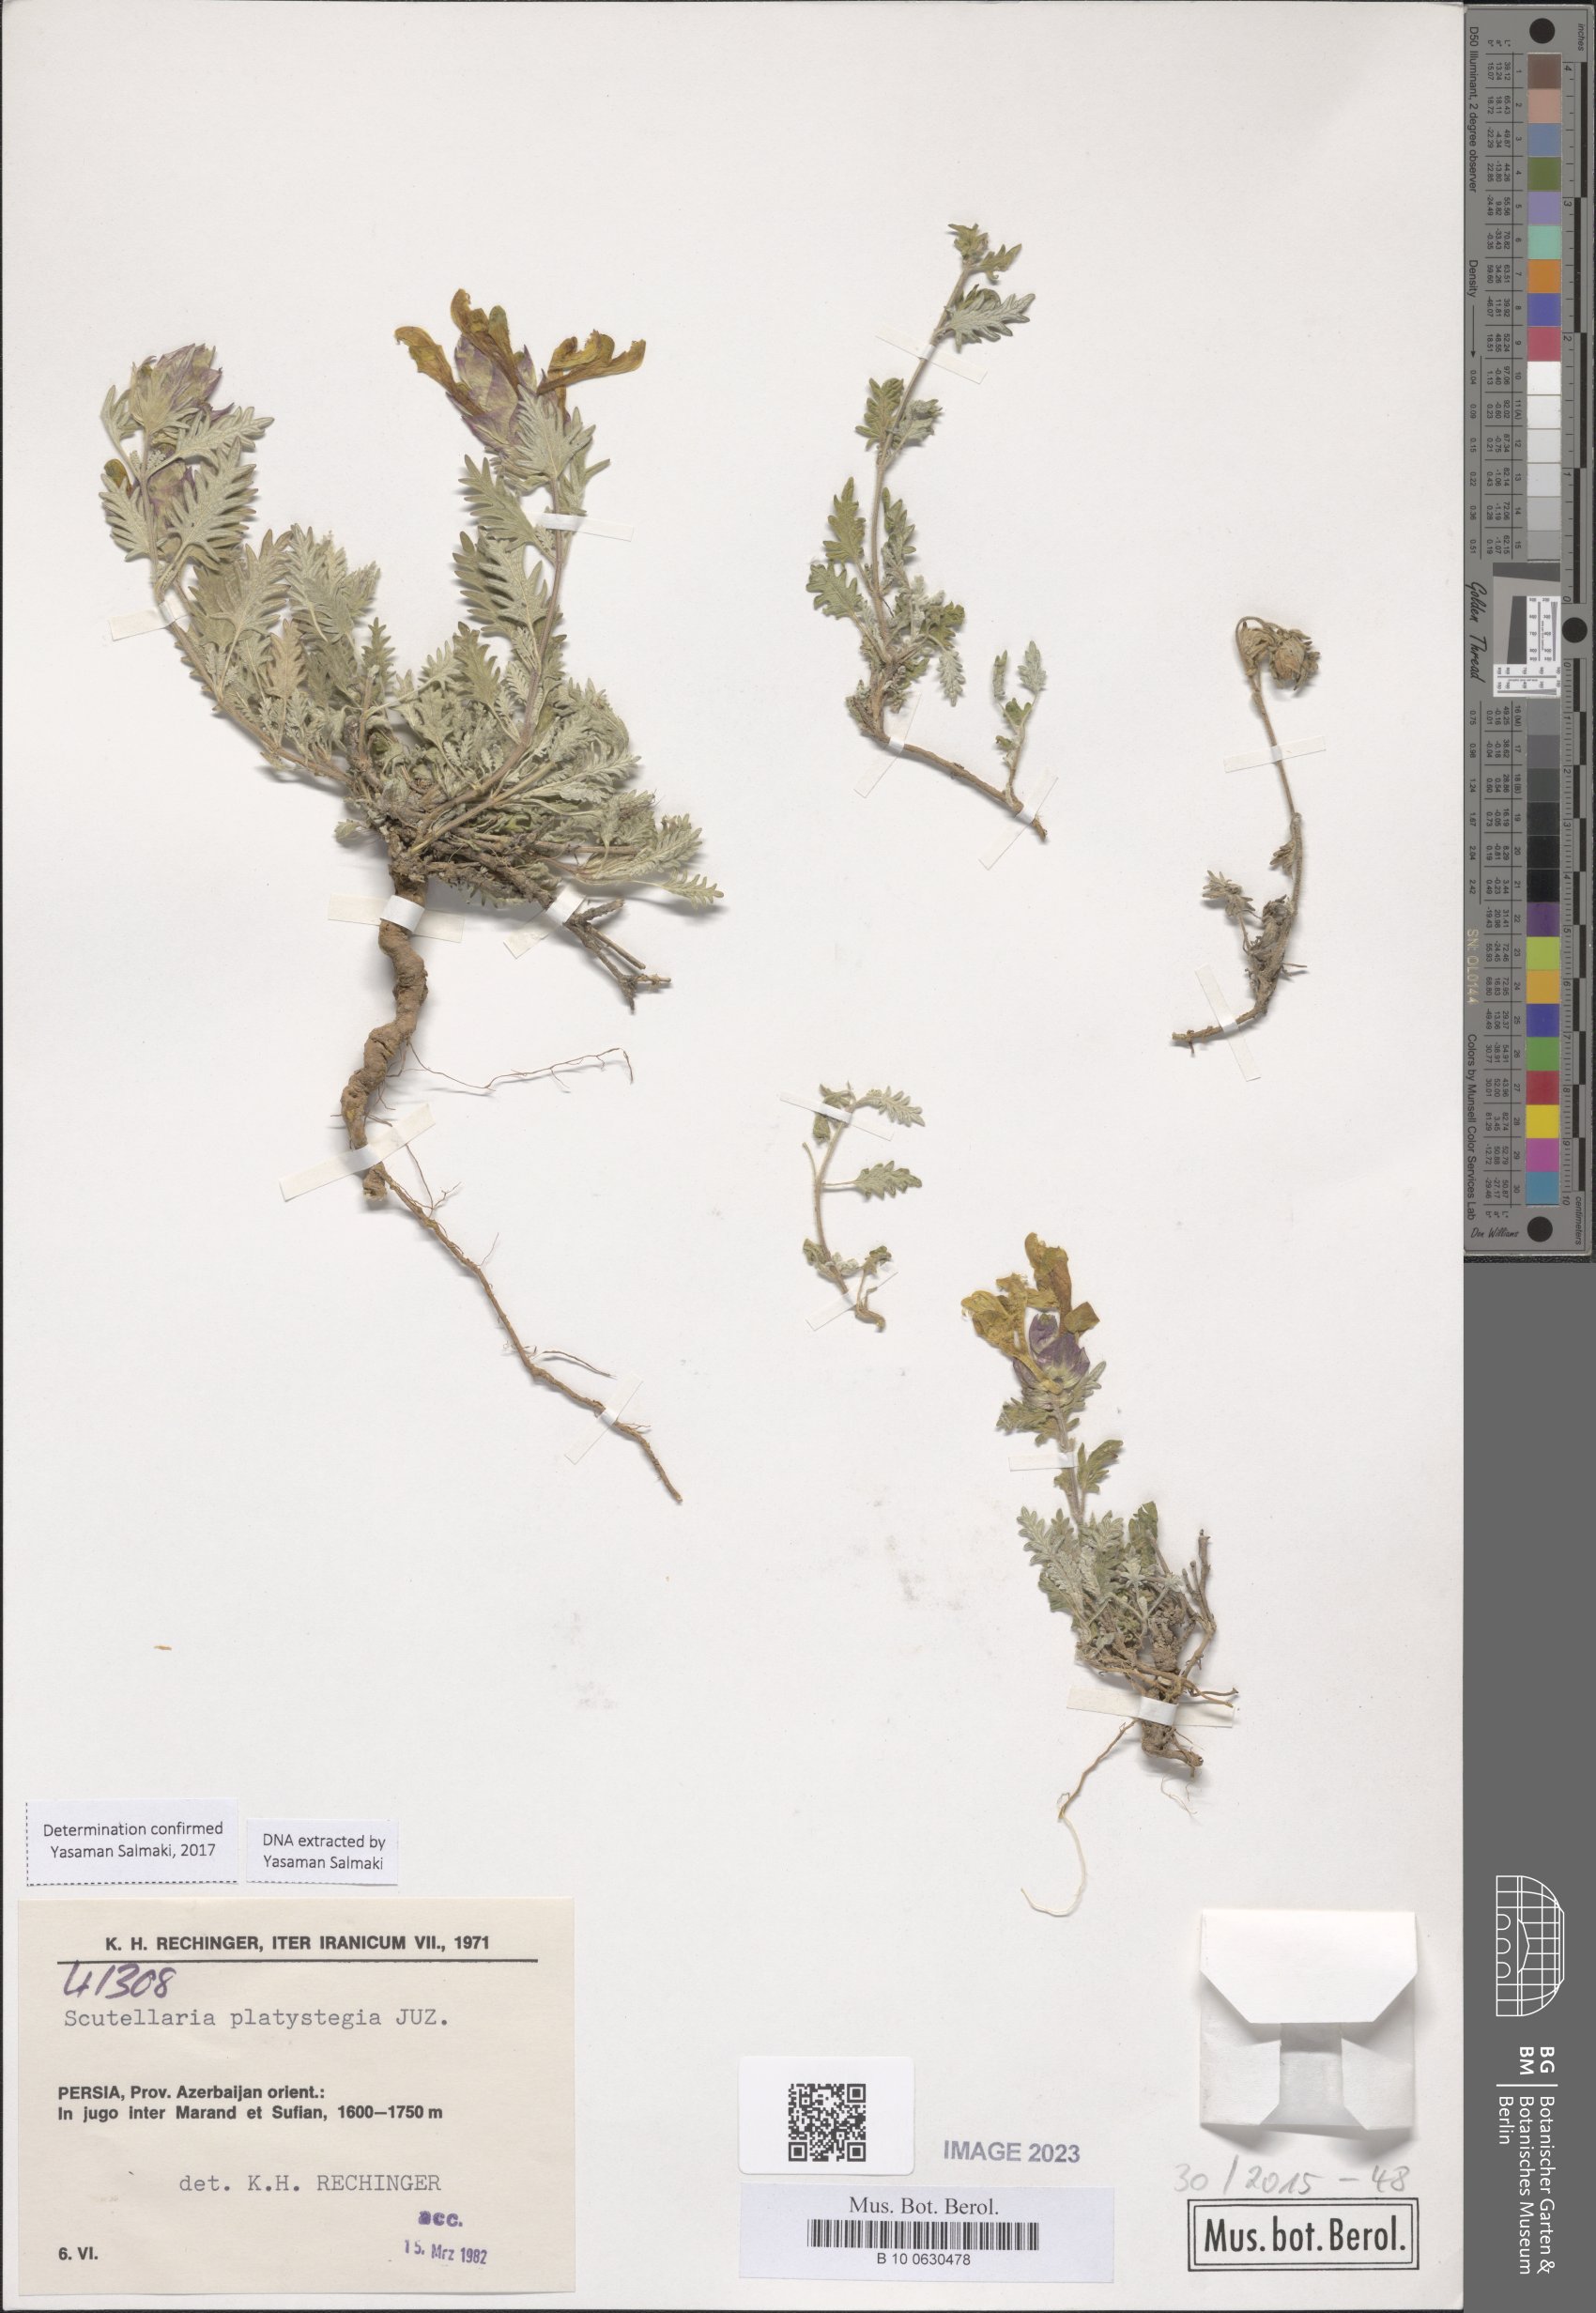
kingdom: Plantae
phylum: Tracheophyta
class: Magnoliopsida
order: Lamiales
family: Lamiaceae
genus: Scutellaria
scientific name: Scutellaria platystegia
